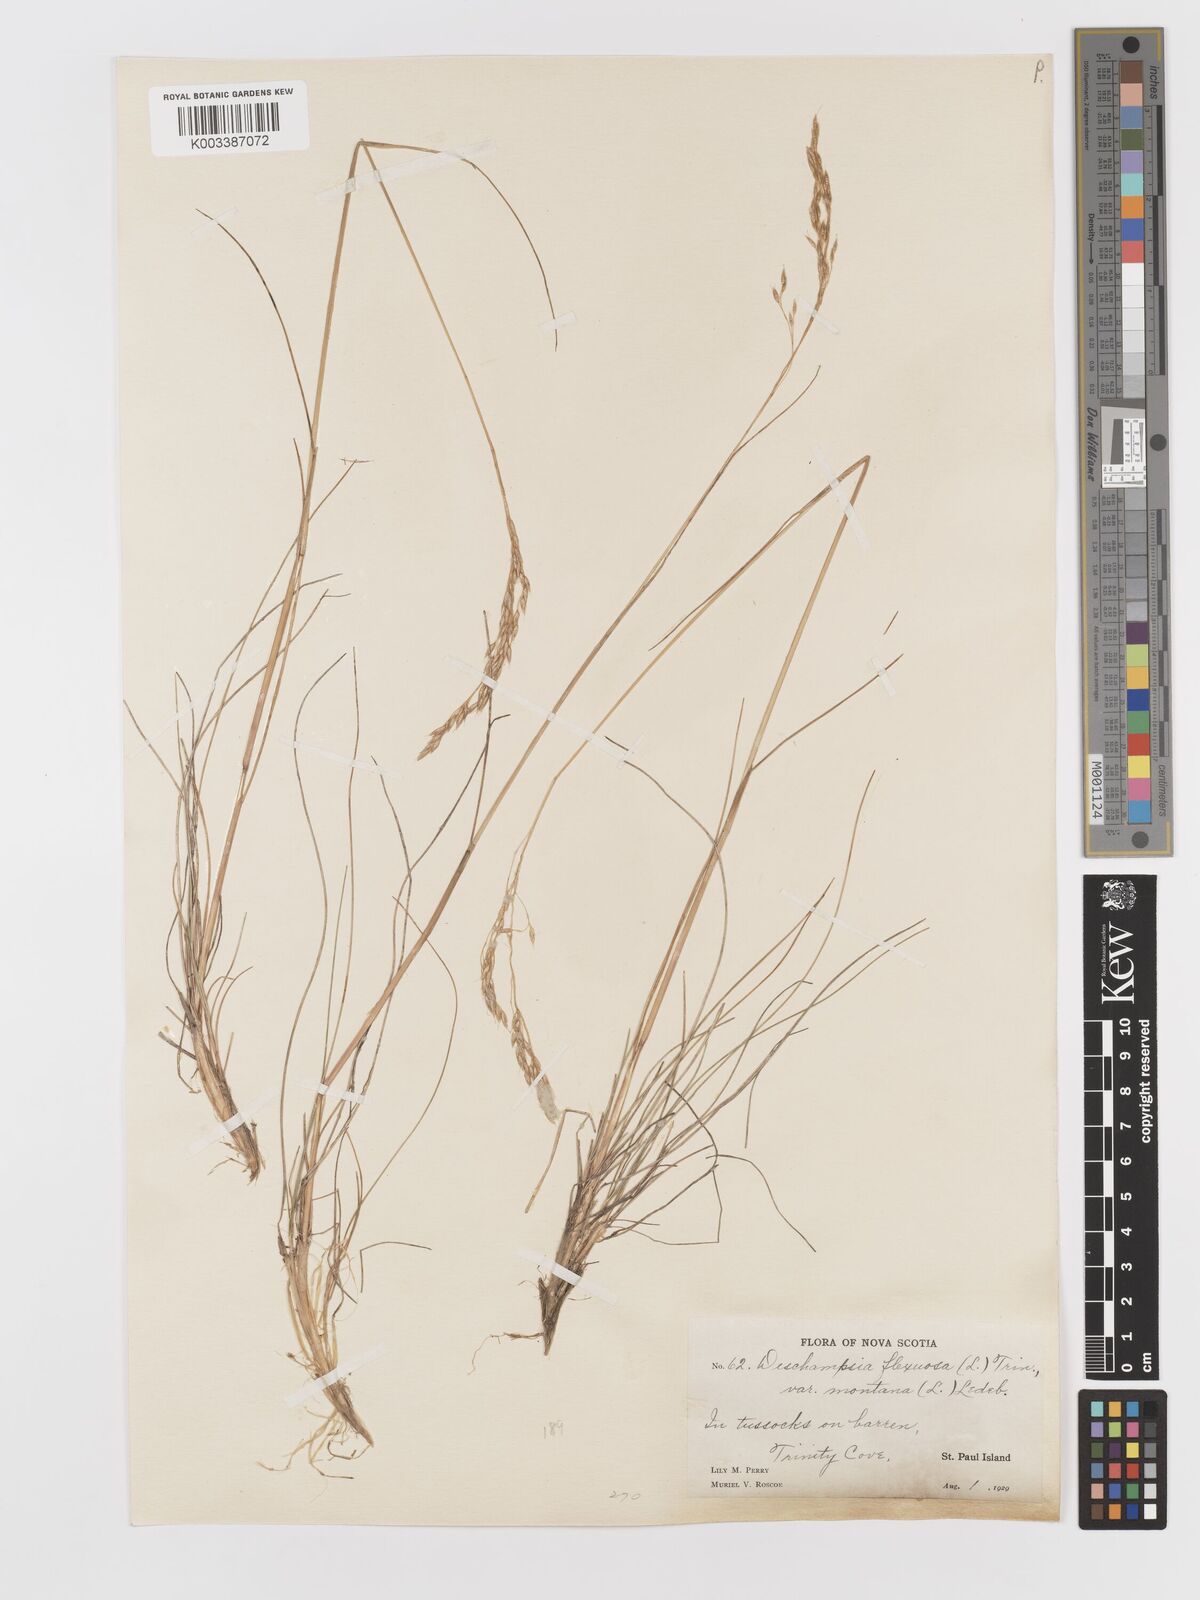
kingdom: Plantae
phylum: Tracheophyta
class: Liliopsida
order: Poales
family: Poaceae
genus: Avenella
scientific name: Avenella flexuosa
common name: Wavy hairgrass
